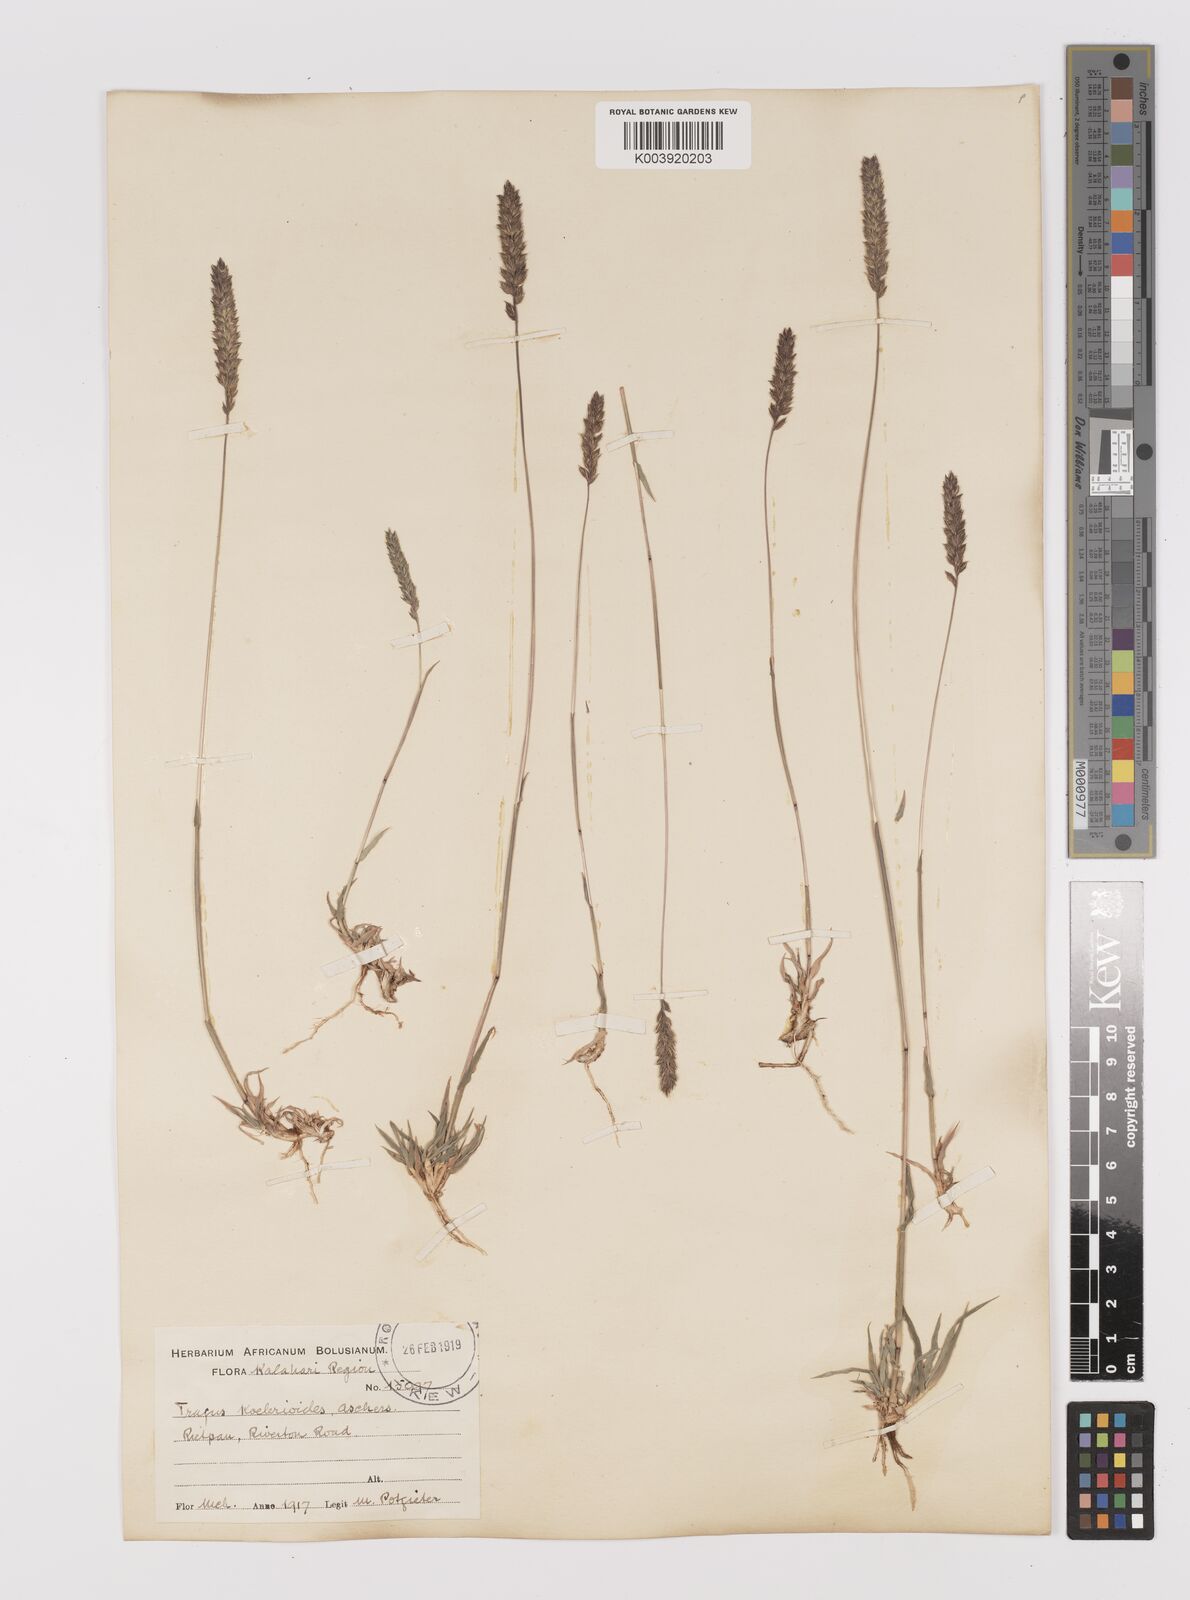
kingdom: Plantae
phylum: Tracheophyta
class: Liliopsida
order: Poales
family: Poaceae
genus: Tragus
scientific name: Tragus koelerioides
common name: Creeping carrot-seed grass
